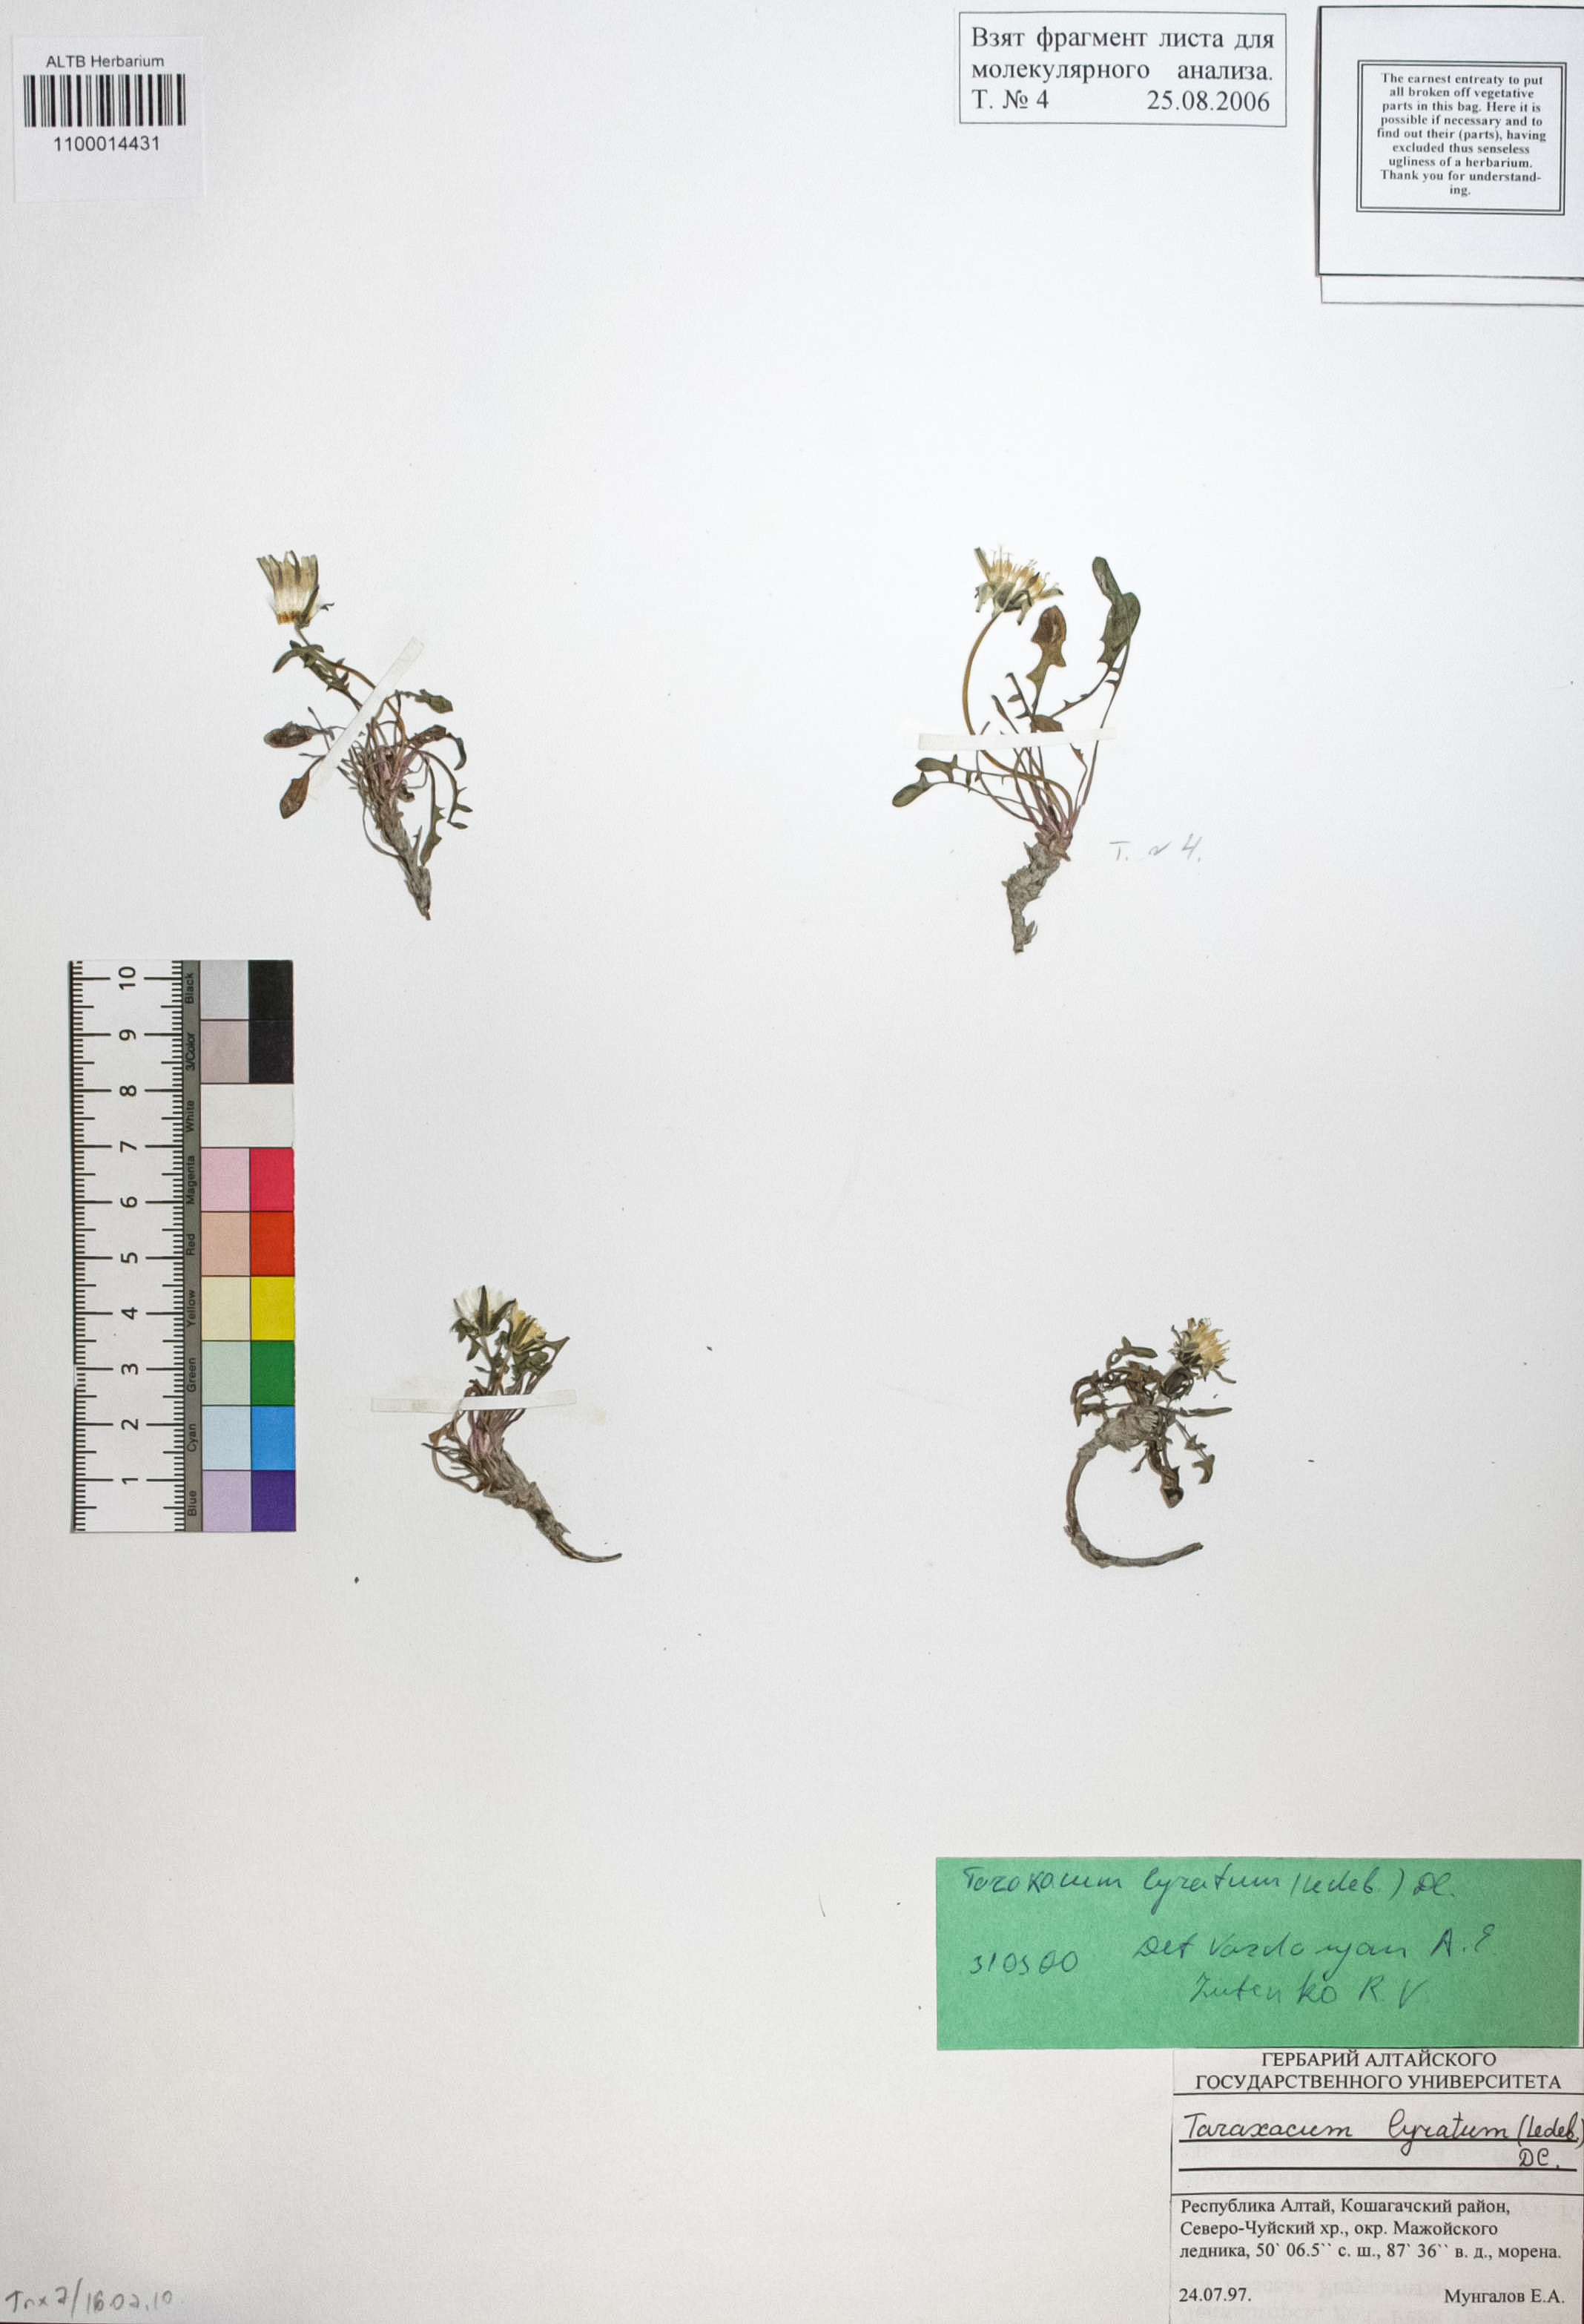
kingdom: Plantae
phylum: Tracheophyta
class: Magnoliopsida
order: Asterales
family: Asteraceae
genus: Taraxacum
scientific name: Taraxacum alaskanum
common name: Alaska dandelion
